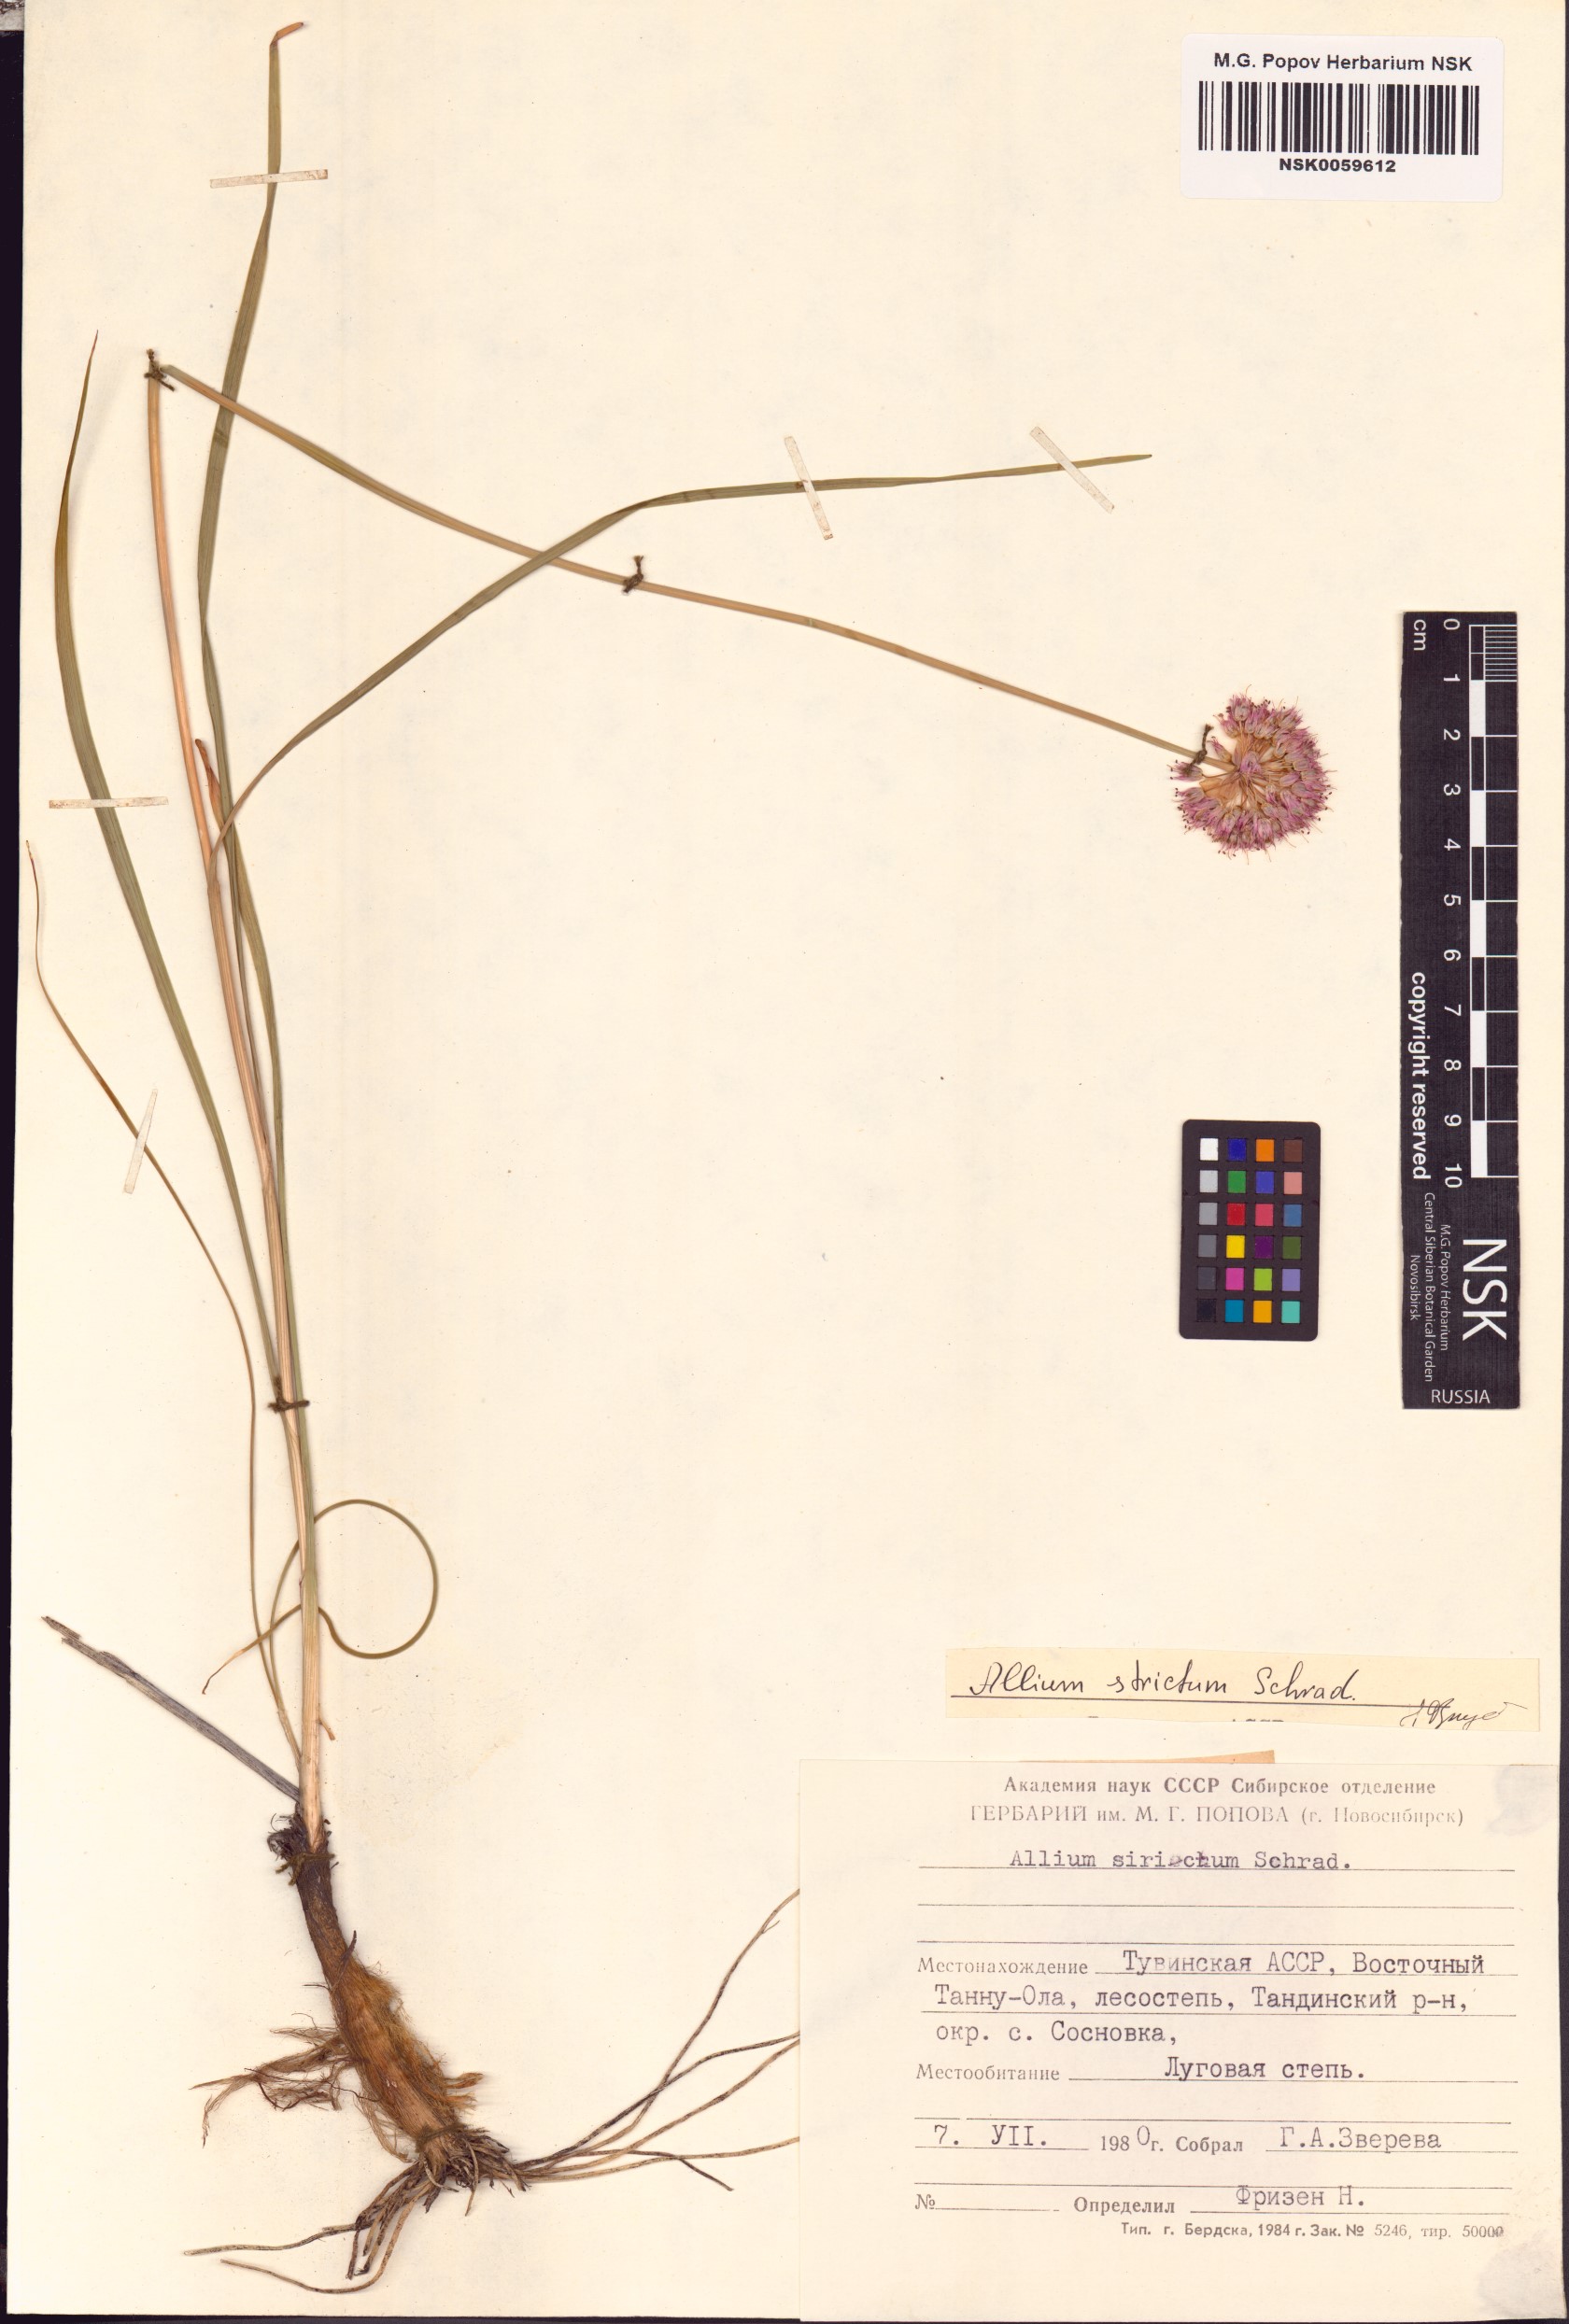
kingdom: Plantae
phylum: Tracheophyta
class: Liliopsida
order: Asparagales
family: Amaryllidaceae
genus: Allium
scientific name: Allium strictum
